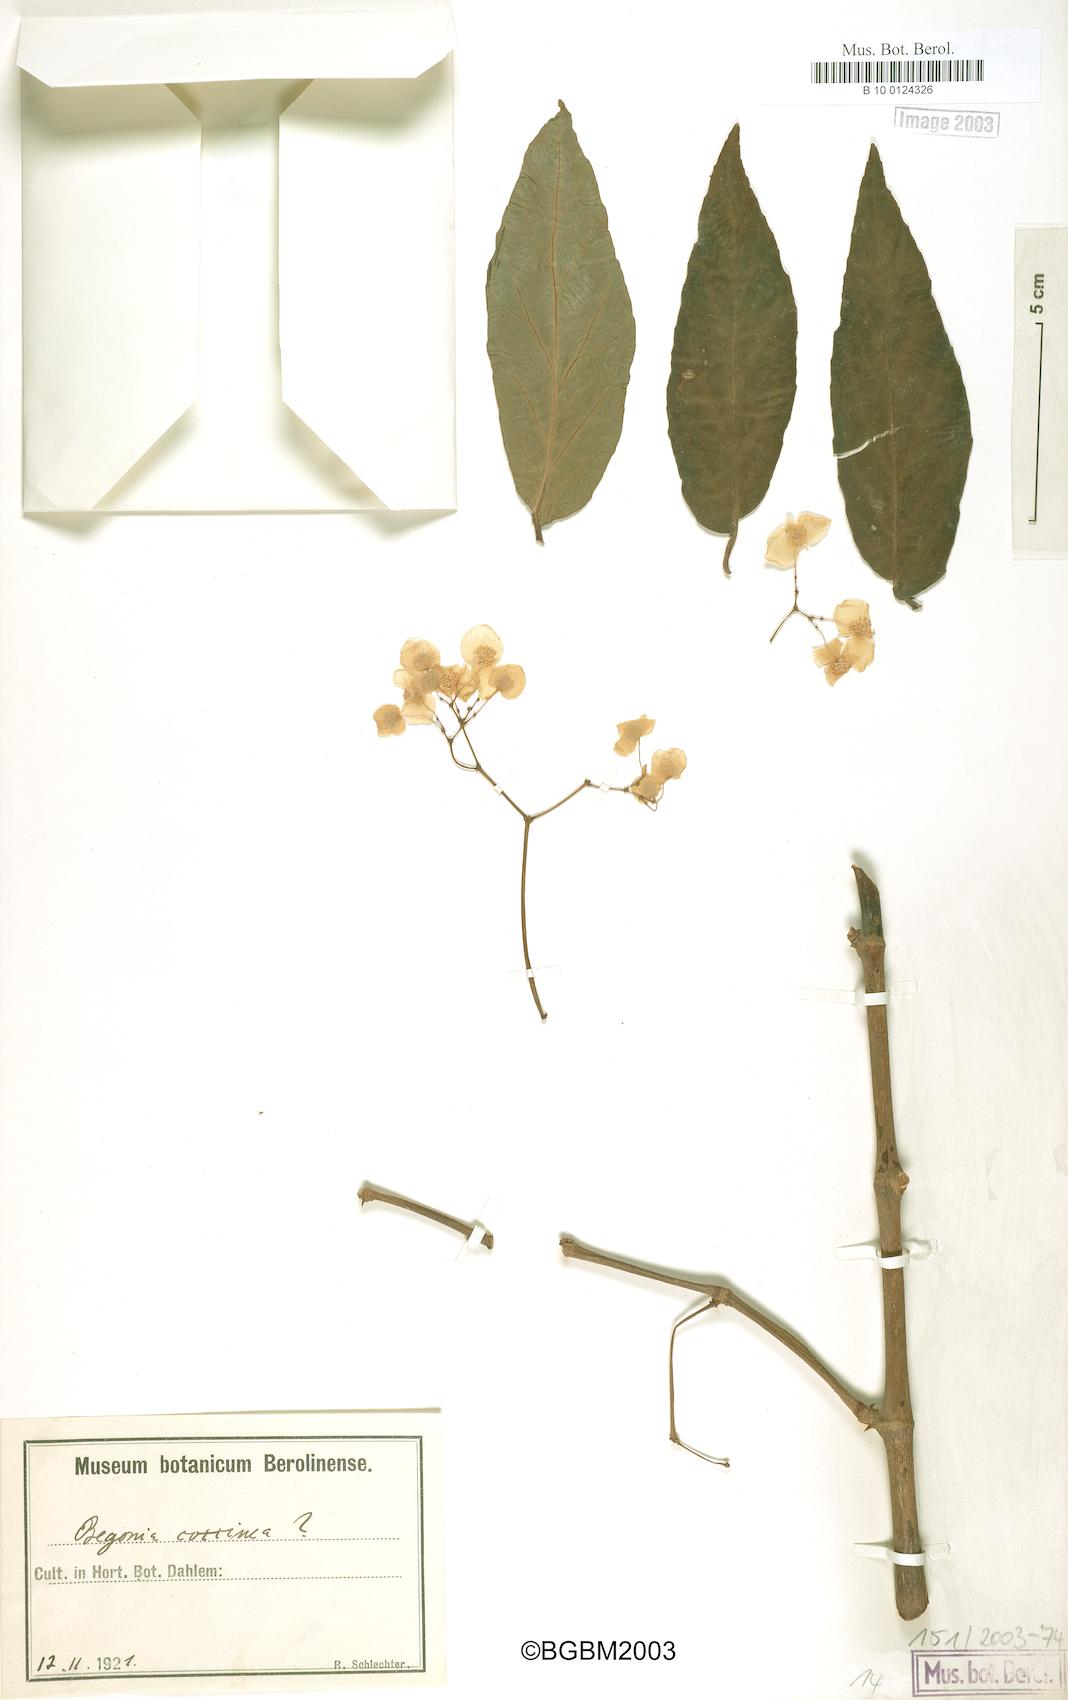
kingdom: Plantae
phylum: Tracheophyta
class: Magnoliopsida
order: Cucurbitales
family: Begoniaceae
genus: Begonia
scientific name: Begonia coccinea
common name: Angel-wing begonia
